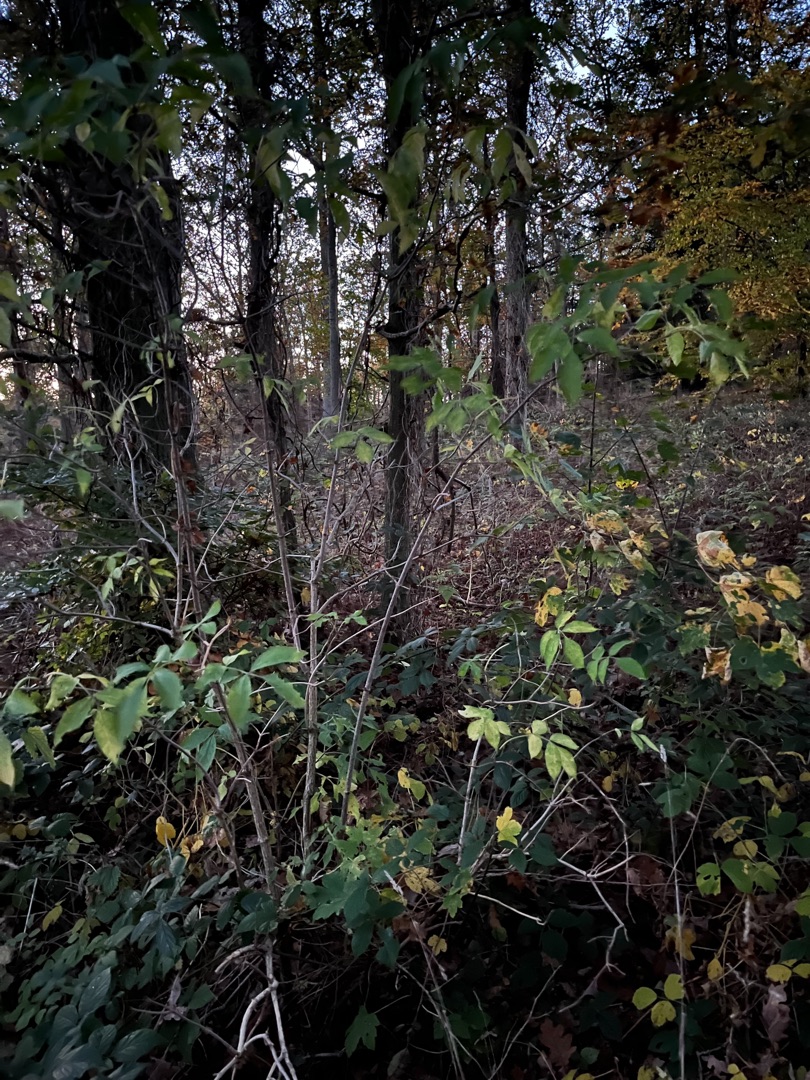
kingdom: Plantae
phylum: Tracheophyta
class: Magnoliopsida
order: Dipsacales
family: Viburnaceae
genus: Sambucus
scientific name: Sambucus nigra
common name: Almindelig hyld
